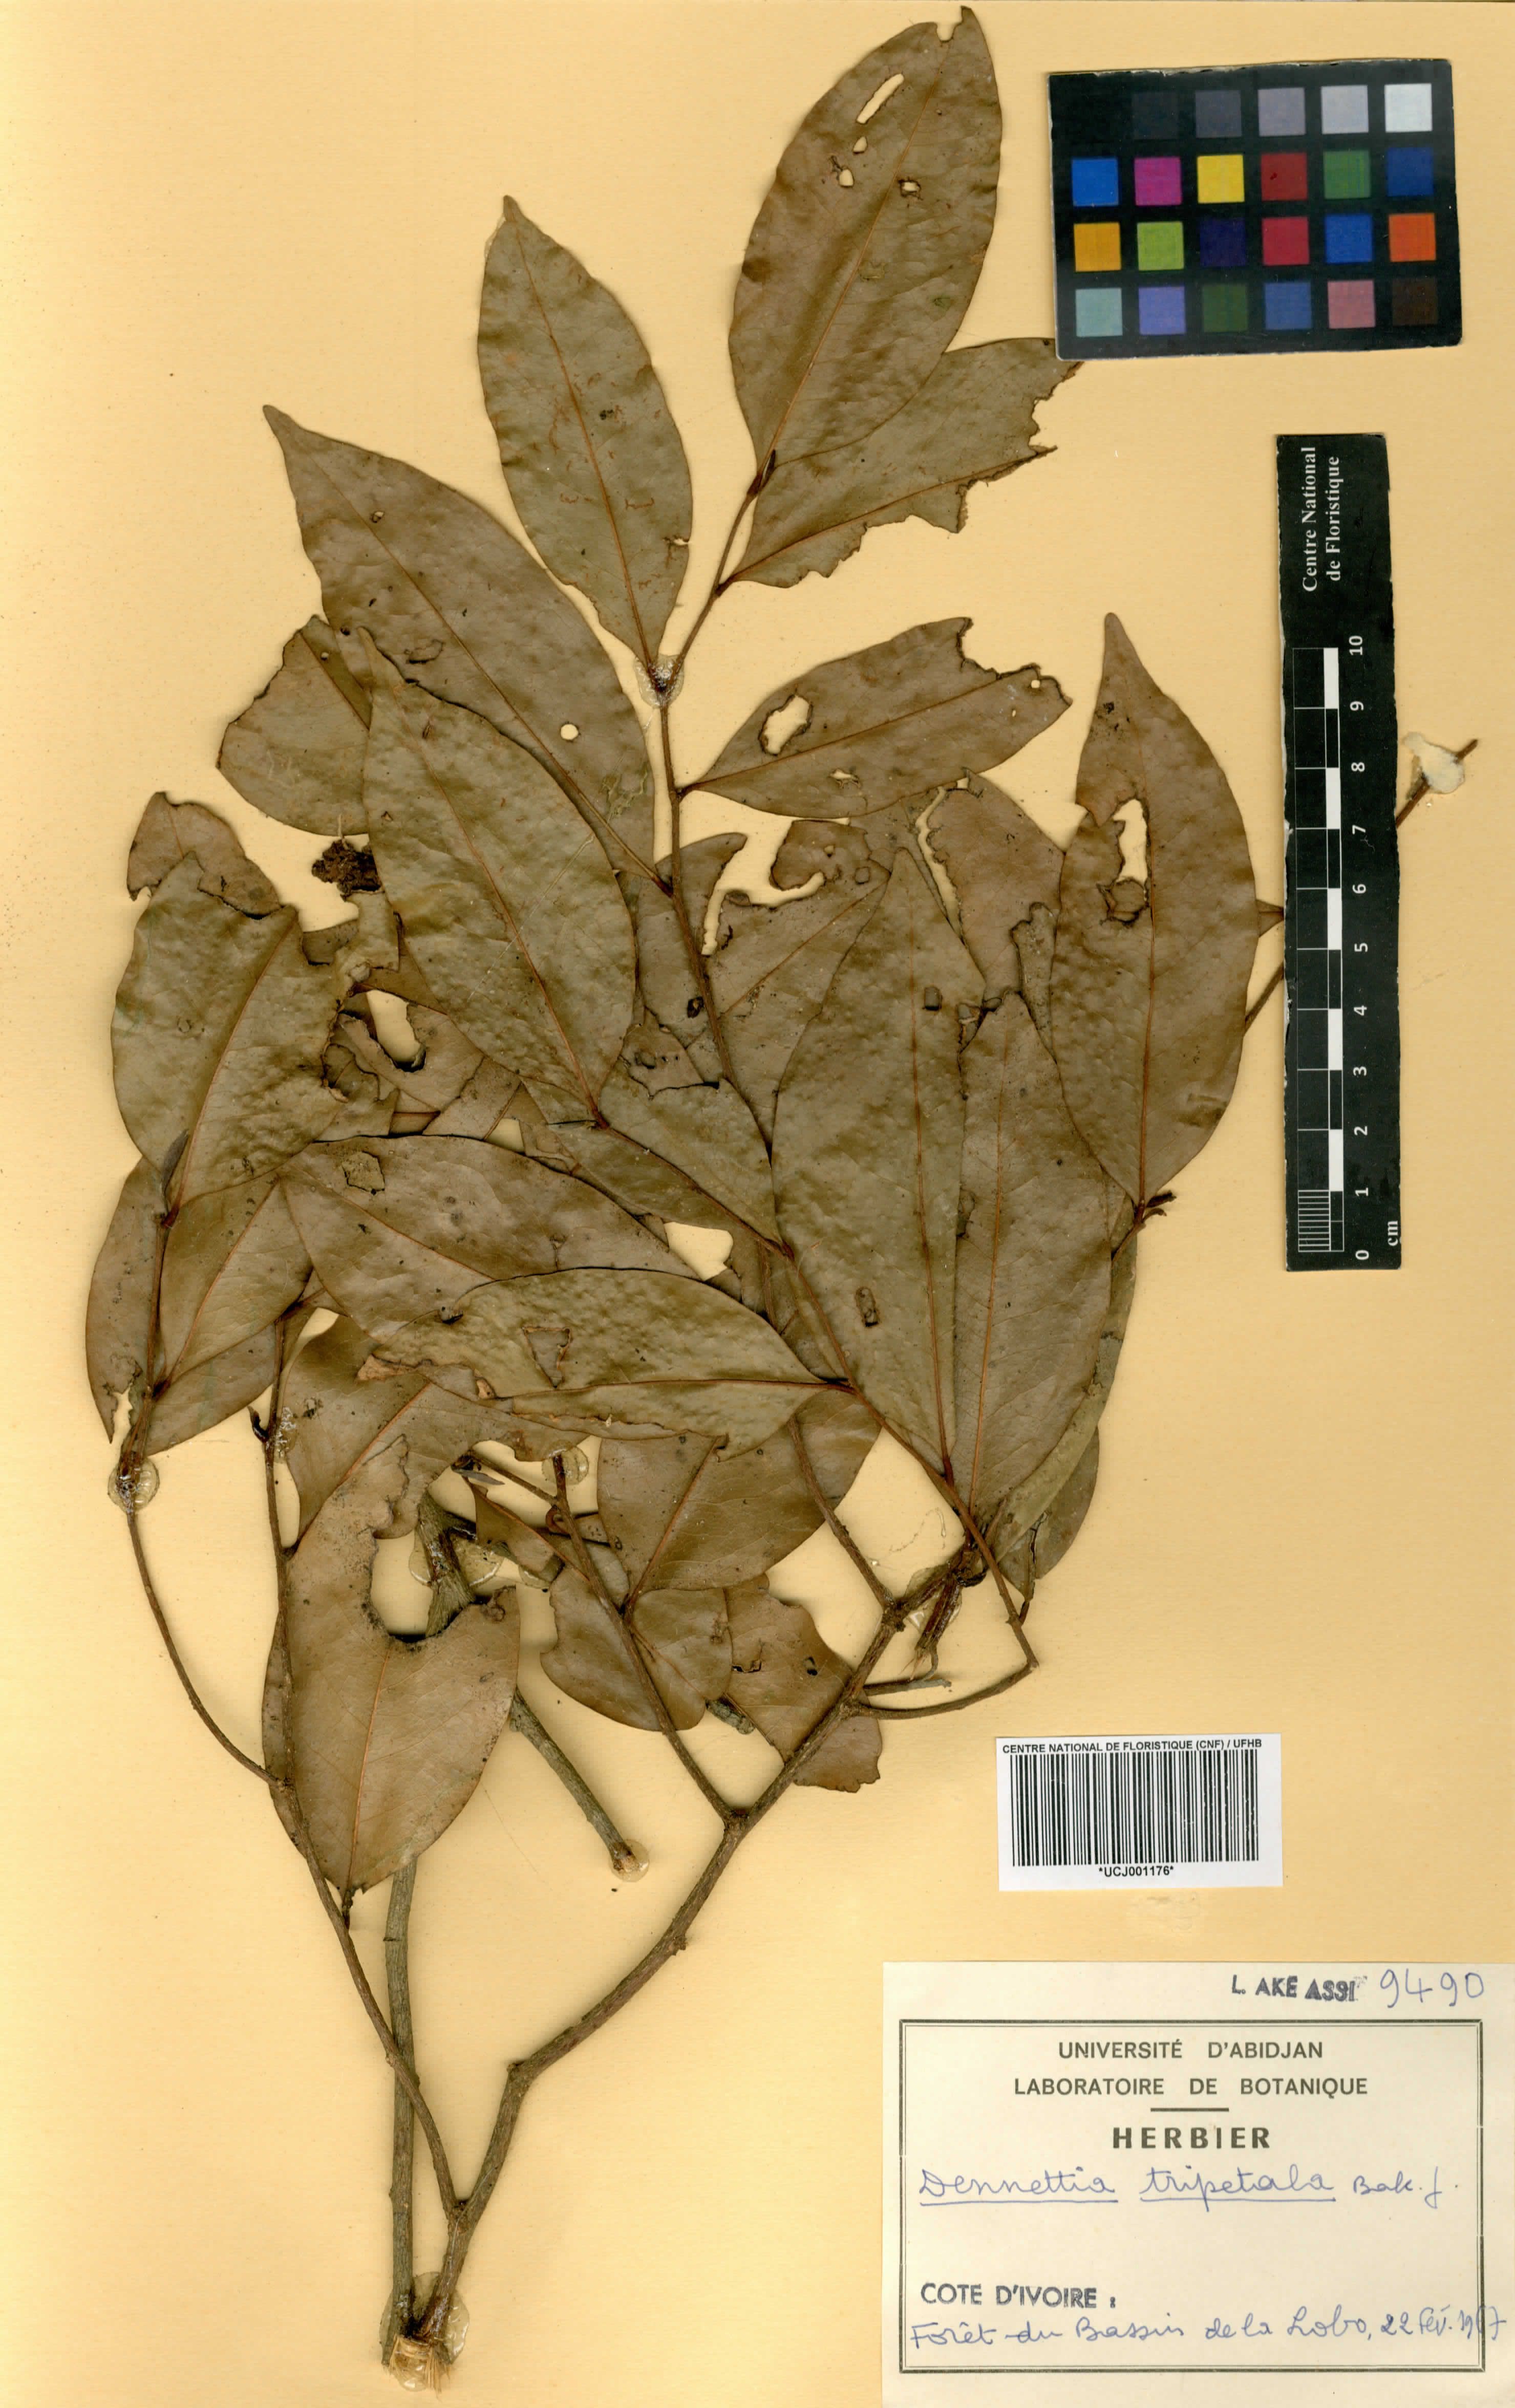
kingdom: Plantae
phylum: Tracheophyta
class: Magnoliopsida
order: Magnoliales
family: Annonaceae
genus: Uvariopsis
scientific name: Uvariopsis tripetala
